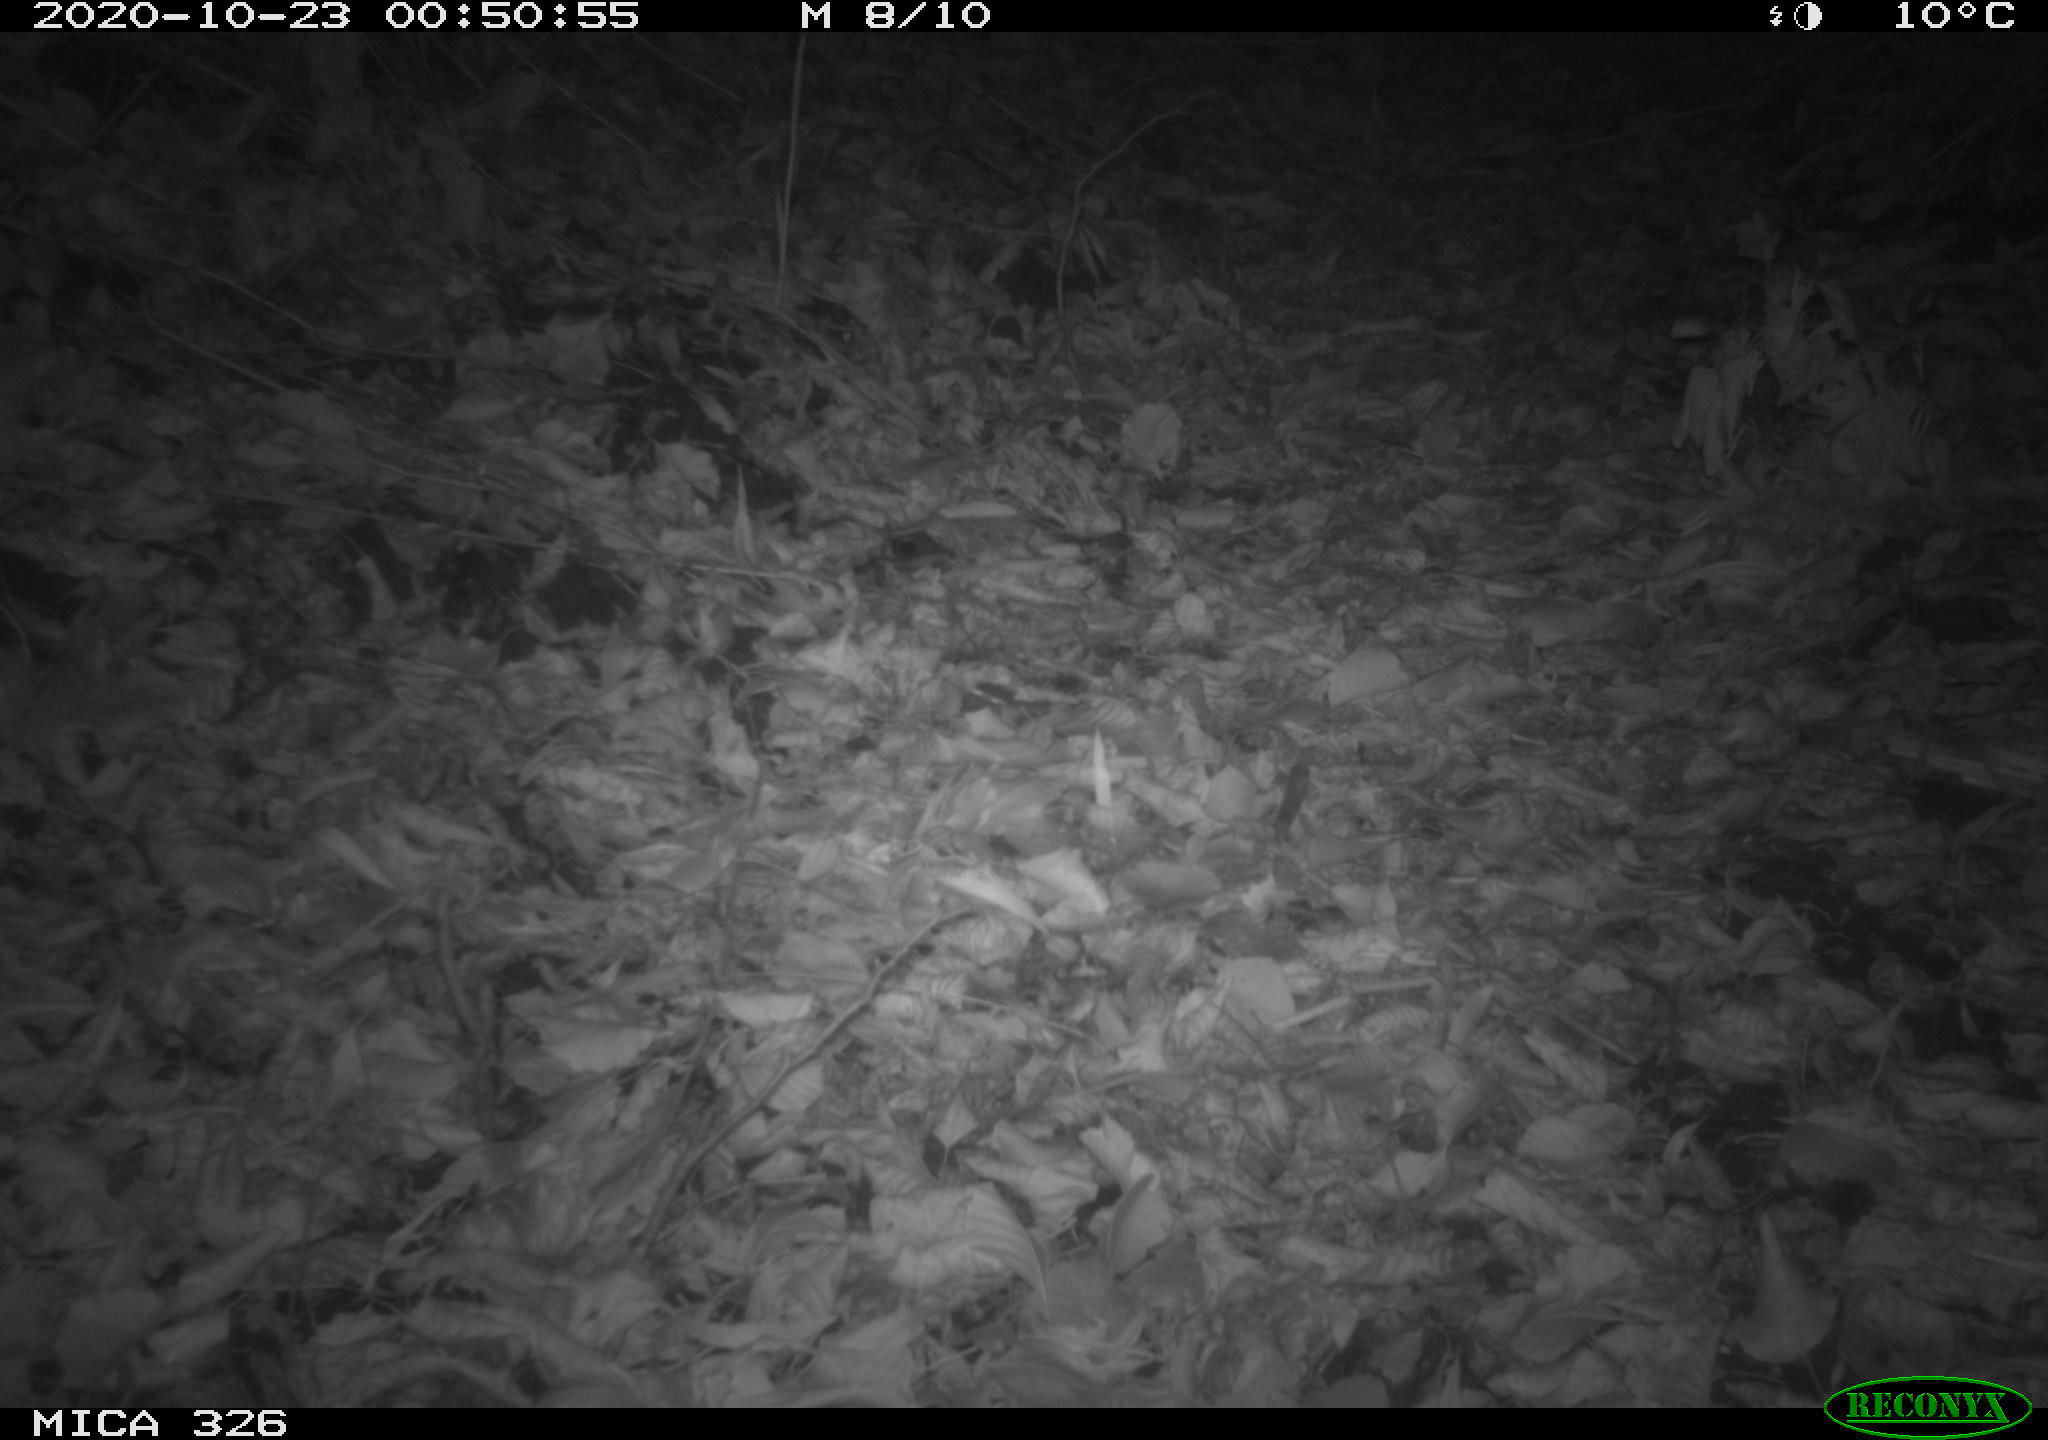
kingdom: Animalia
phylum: Chordata
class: Mammalia
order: Rodentia
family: Muridae
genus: Rattus
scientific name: Rattus norvegicus
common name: Brown rat
